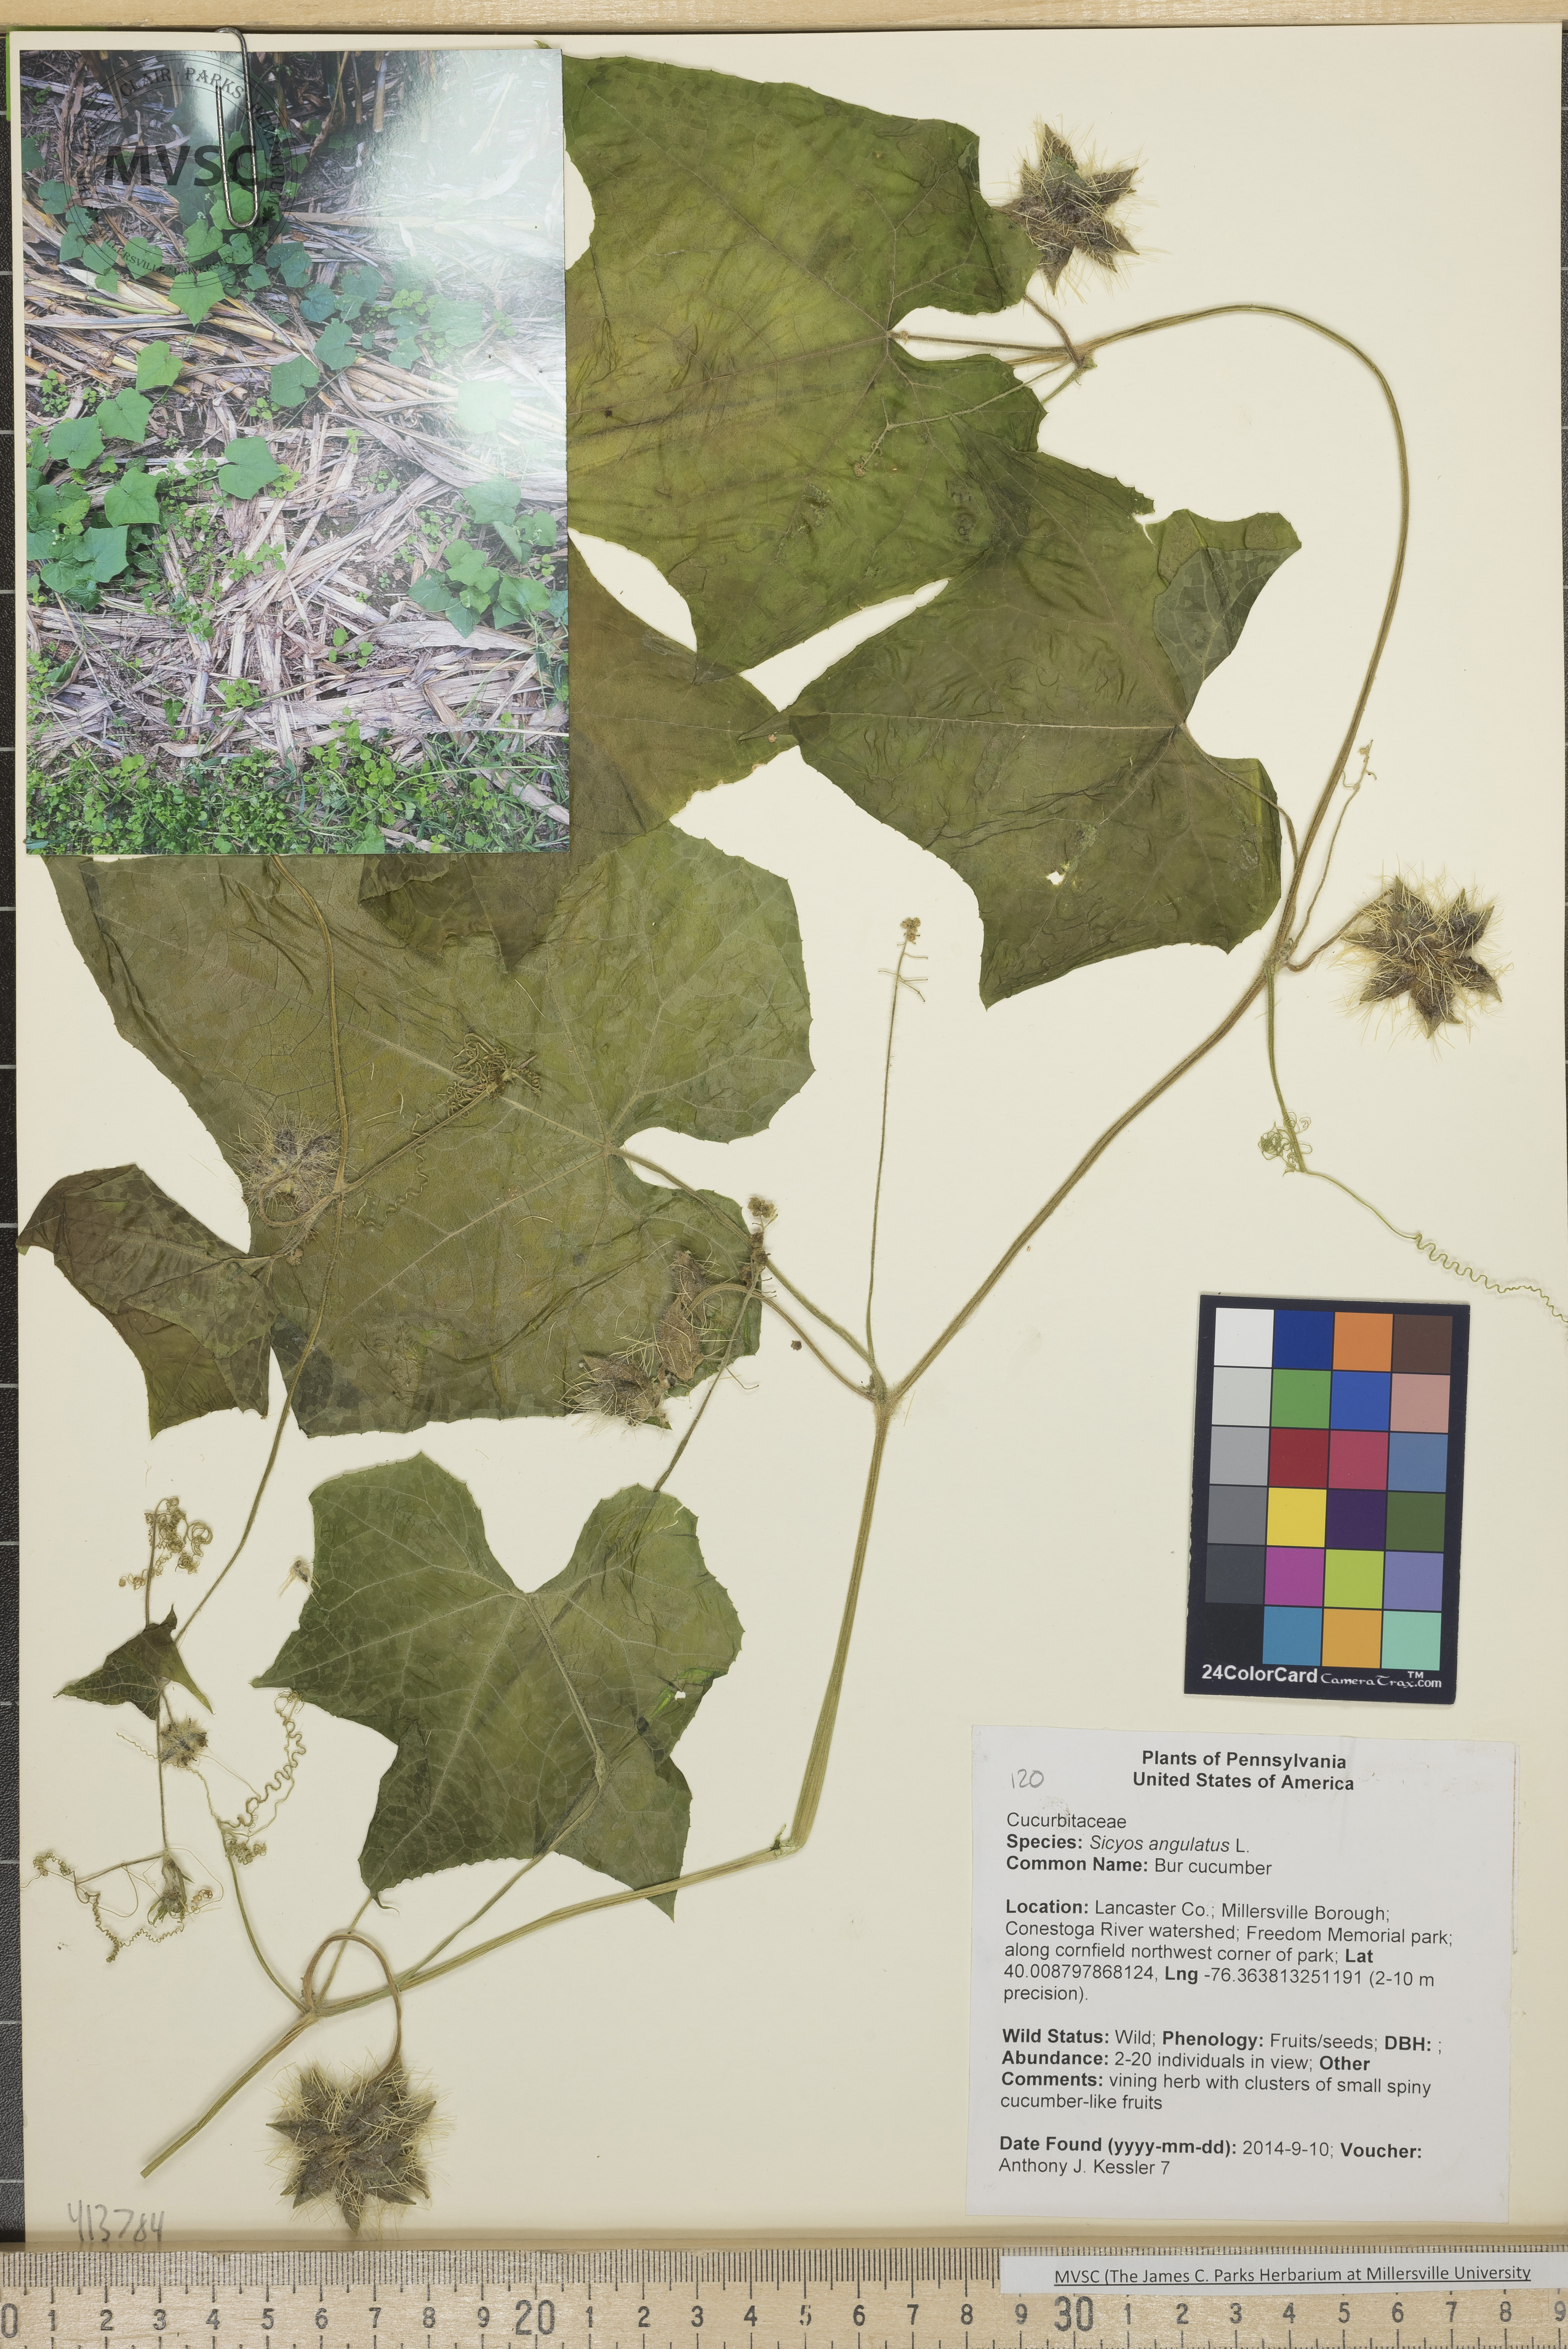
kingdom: Plantae
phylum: Tracheophyta
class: Magnoliopsida
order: Cucurbitales
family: Cucurbitaceae
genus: Sicyos
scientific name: Sicyos angulatus
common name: Bur cucumber
